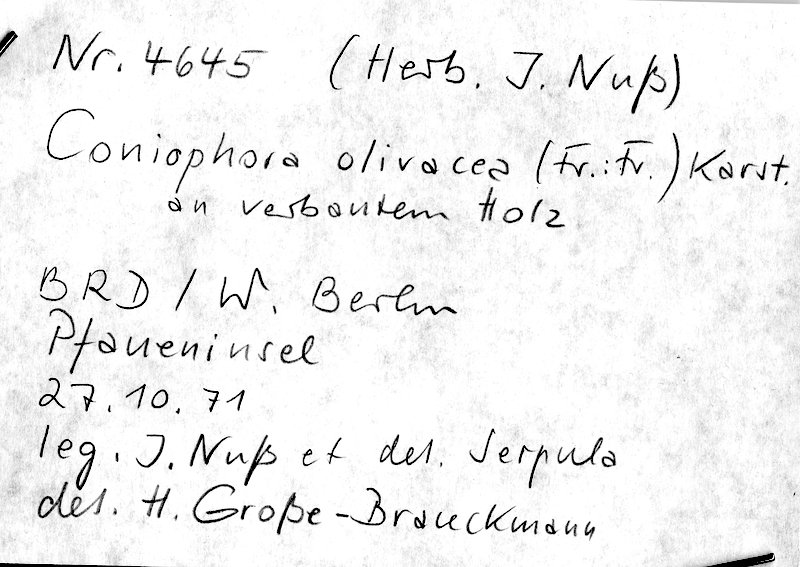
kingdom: Fungi
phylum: Basidiomycota
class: Agaricomycetes
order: Boletales
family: Coniophoraceae
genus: Coniophora
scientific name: Coniophora olivacea
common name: Olive duster
